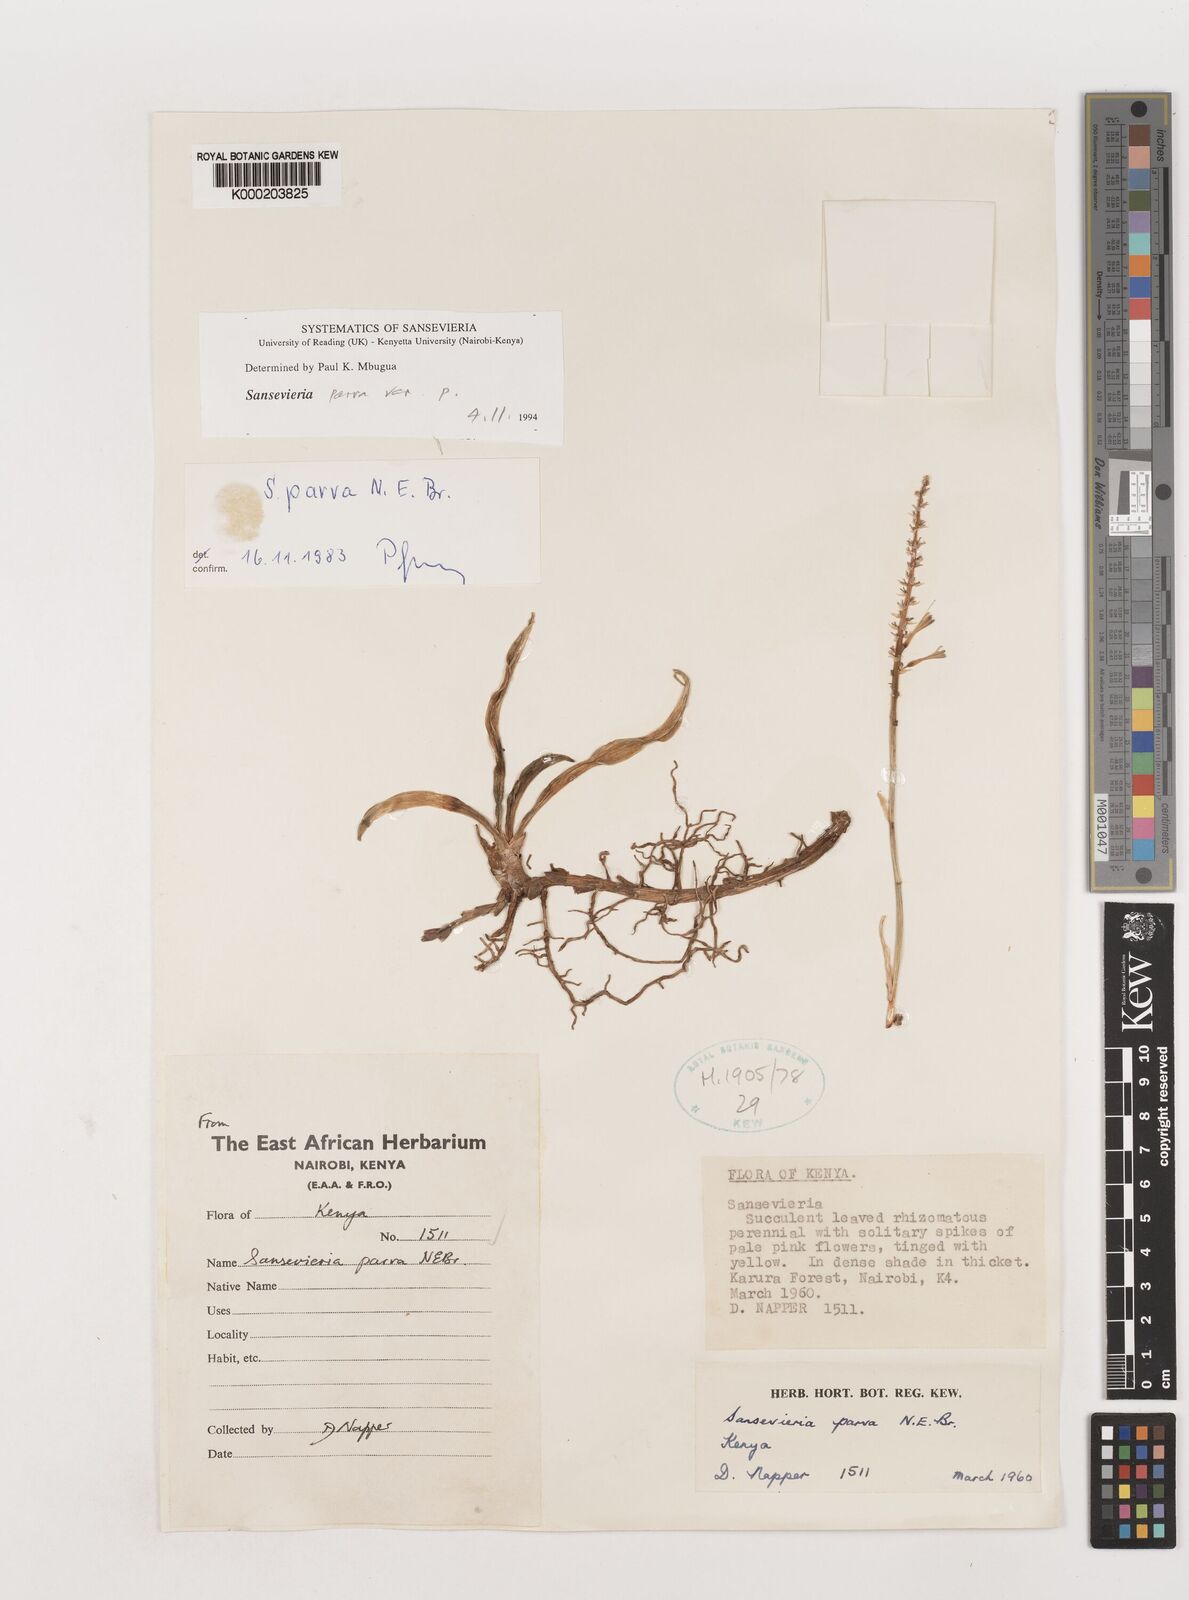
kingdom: Plantae
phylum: Tracheophyta
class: Liliopsida
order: Asparagales
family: Asparagaceae
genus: Dracaena
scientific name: Dracaena parva
